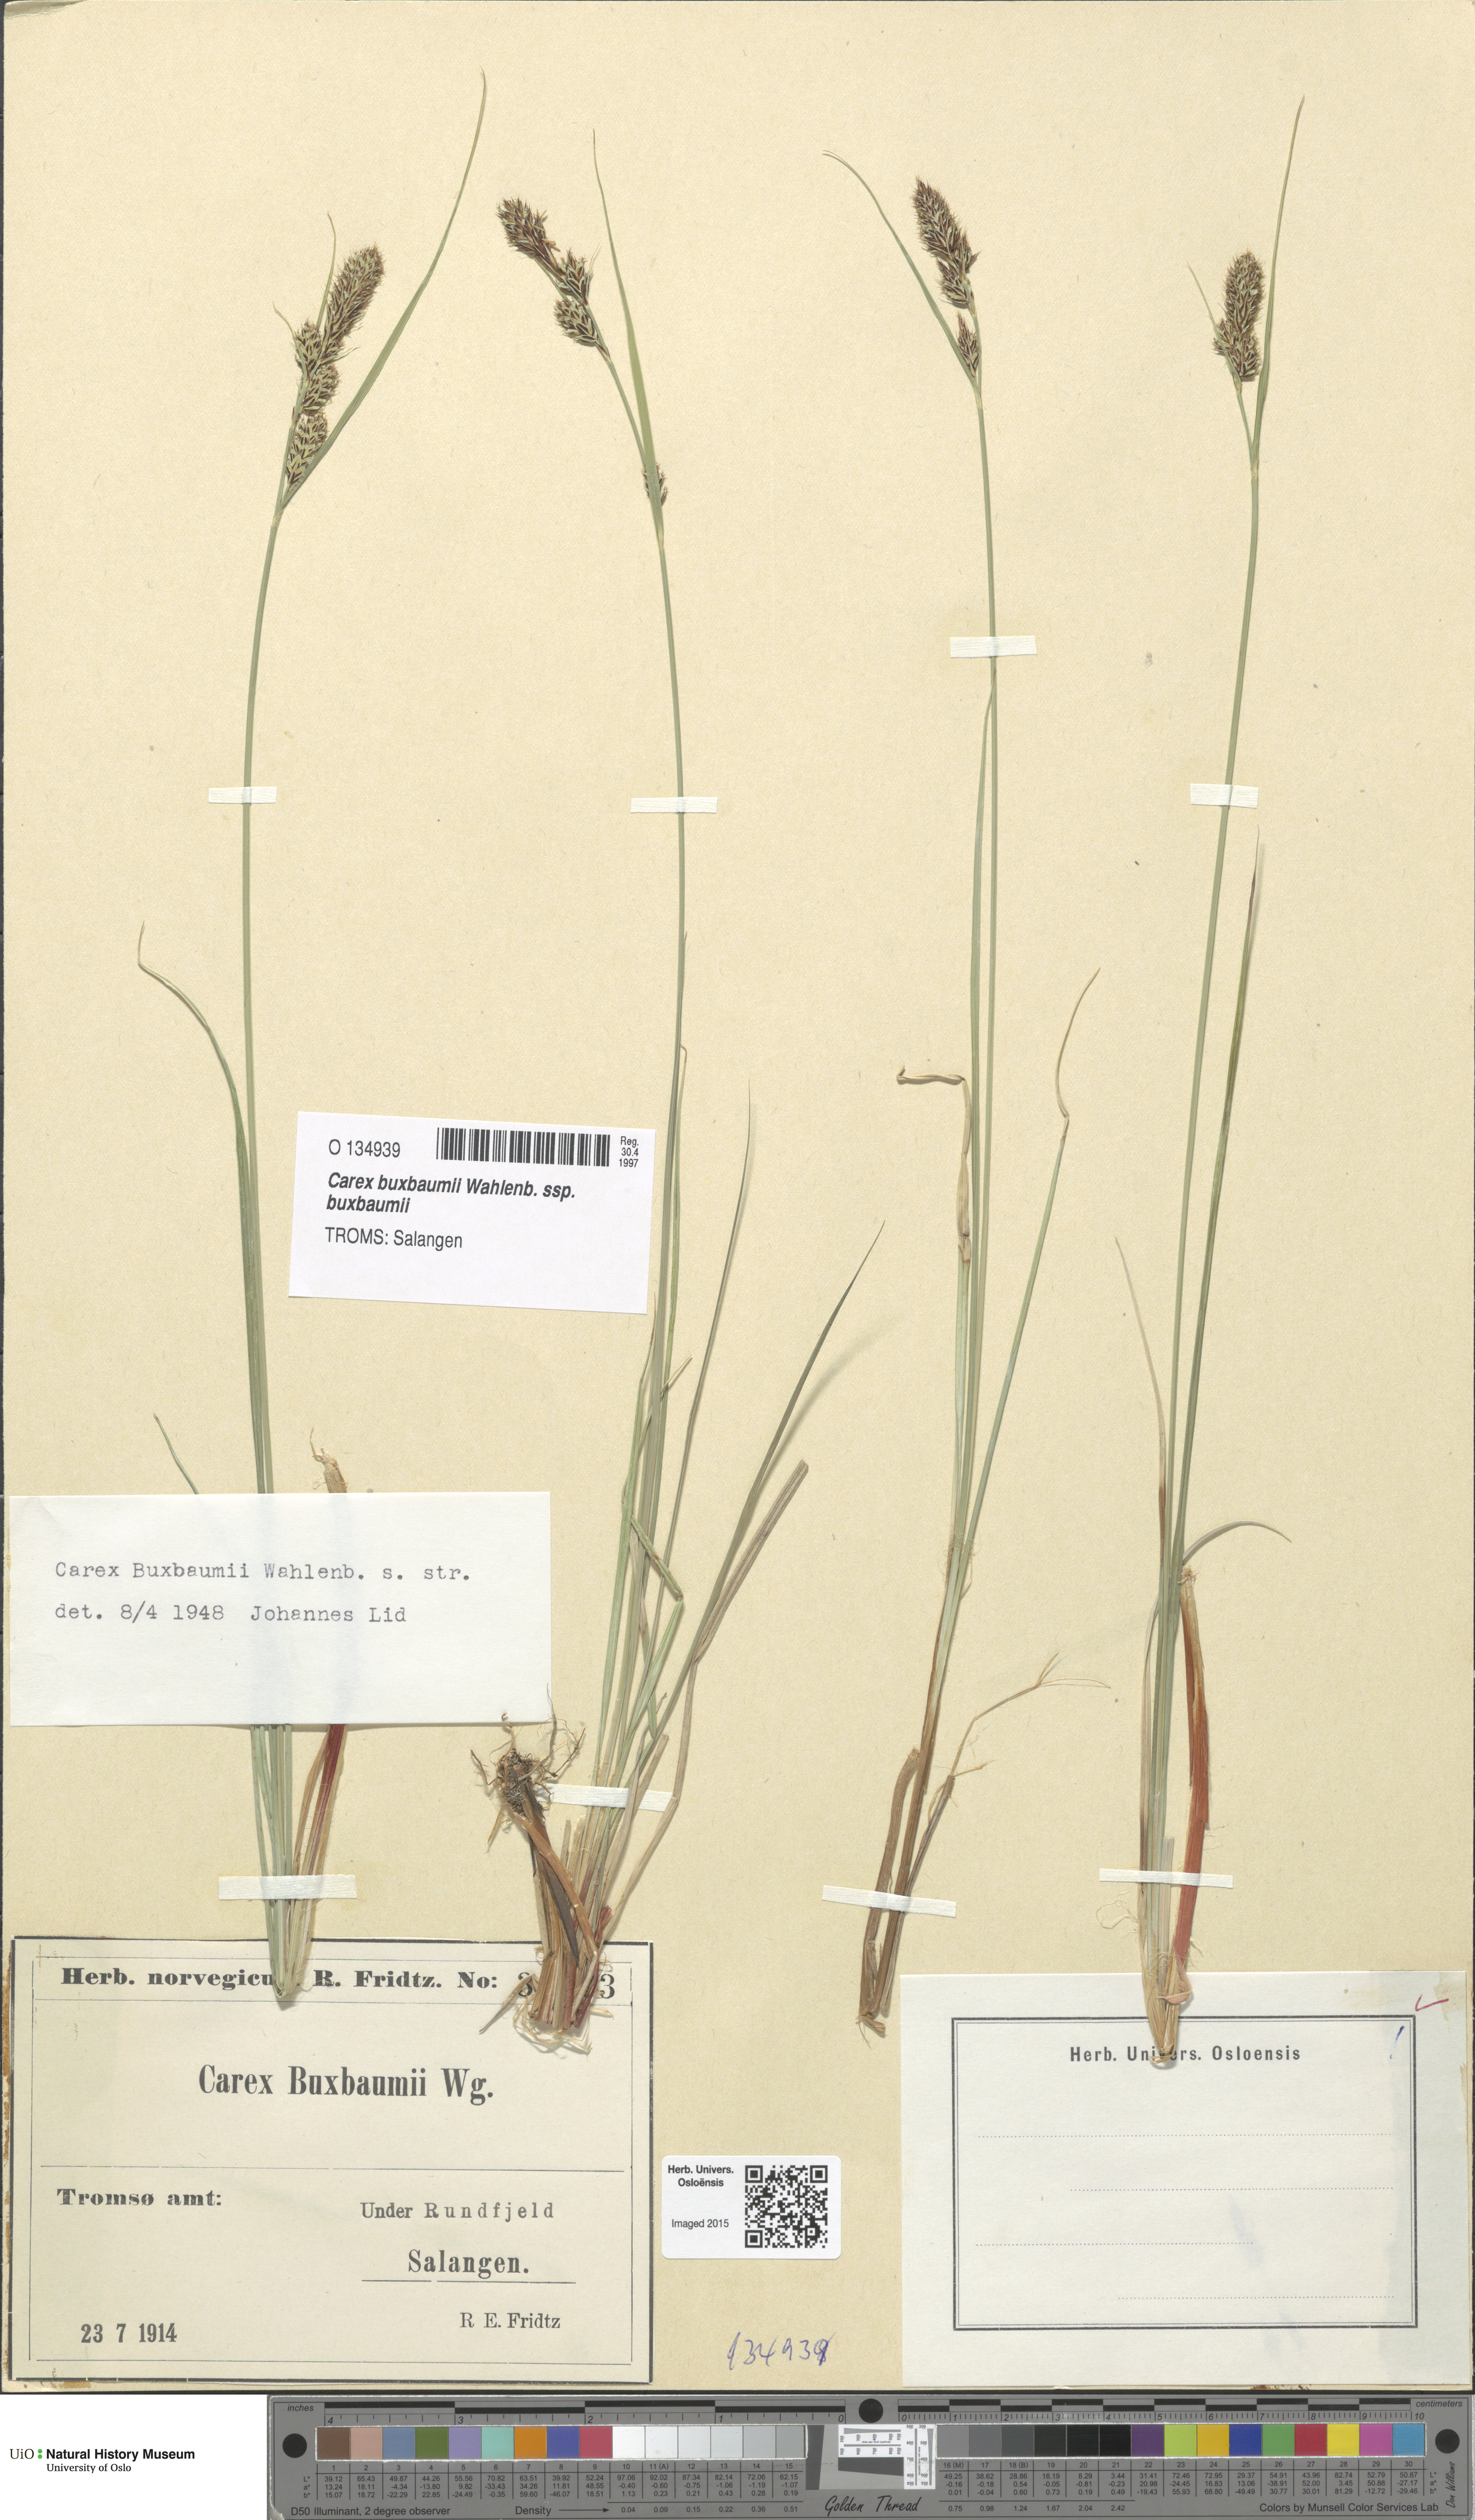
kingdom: Plantae
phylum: Tracheophyta
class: Liliopsida
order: Poales
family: Cyperaceae
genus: Carex
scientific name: Carex buxbaumii
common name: Club sedge
